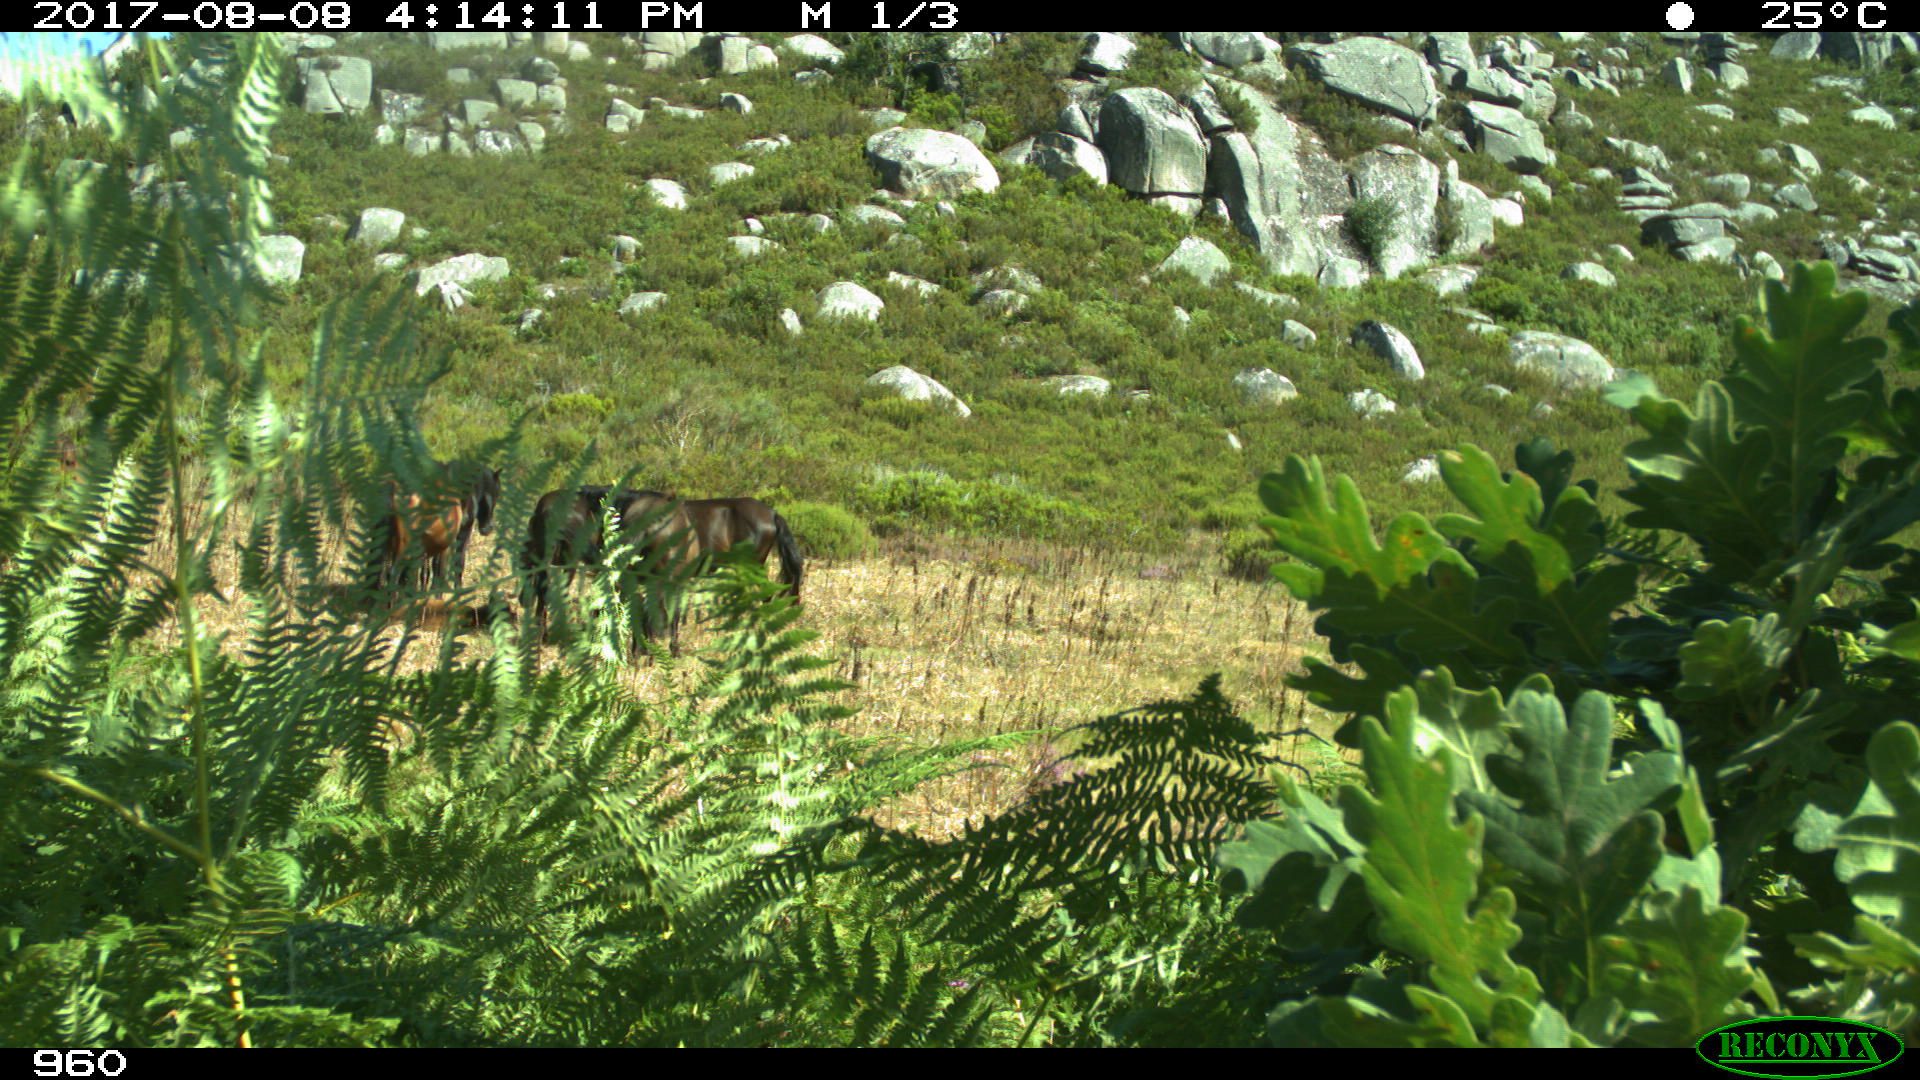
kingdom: Animalia
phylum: Chordata
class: Mammalia
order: Perissodactyla
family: Equidae
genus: Equus
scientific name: Equus caballus
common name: Horse
